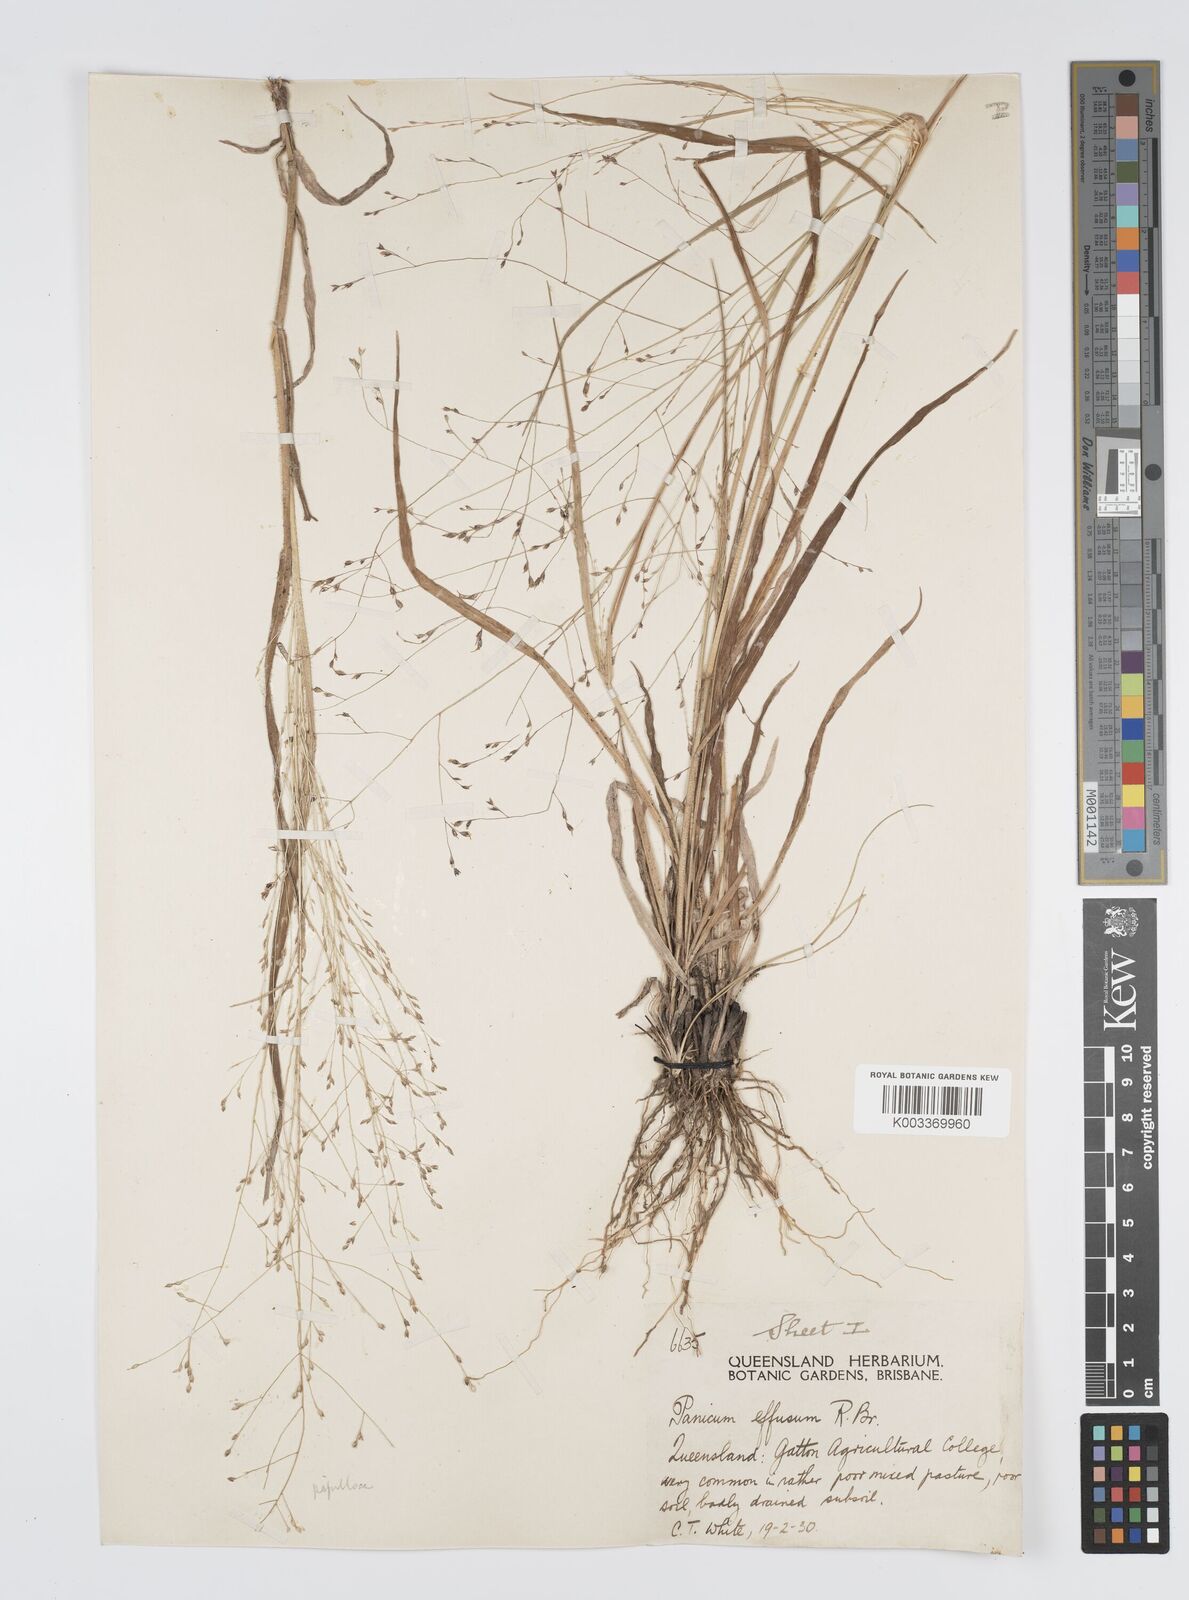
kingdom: Plantae
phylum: Tracheophyta
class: Liliopsida
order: Poales
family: Poaceae
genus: Panicum
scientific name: Panicum effusum
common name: Hairy panic grass
